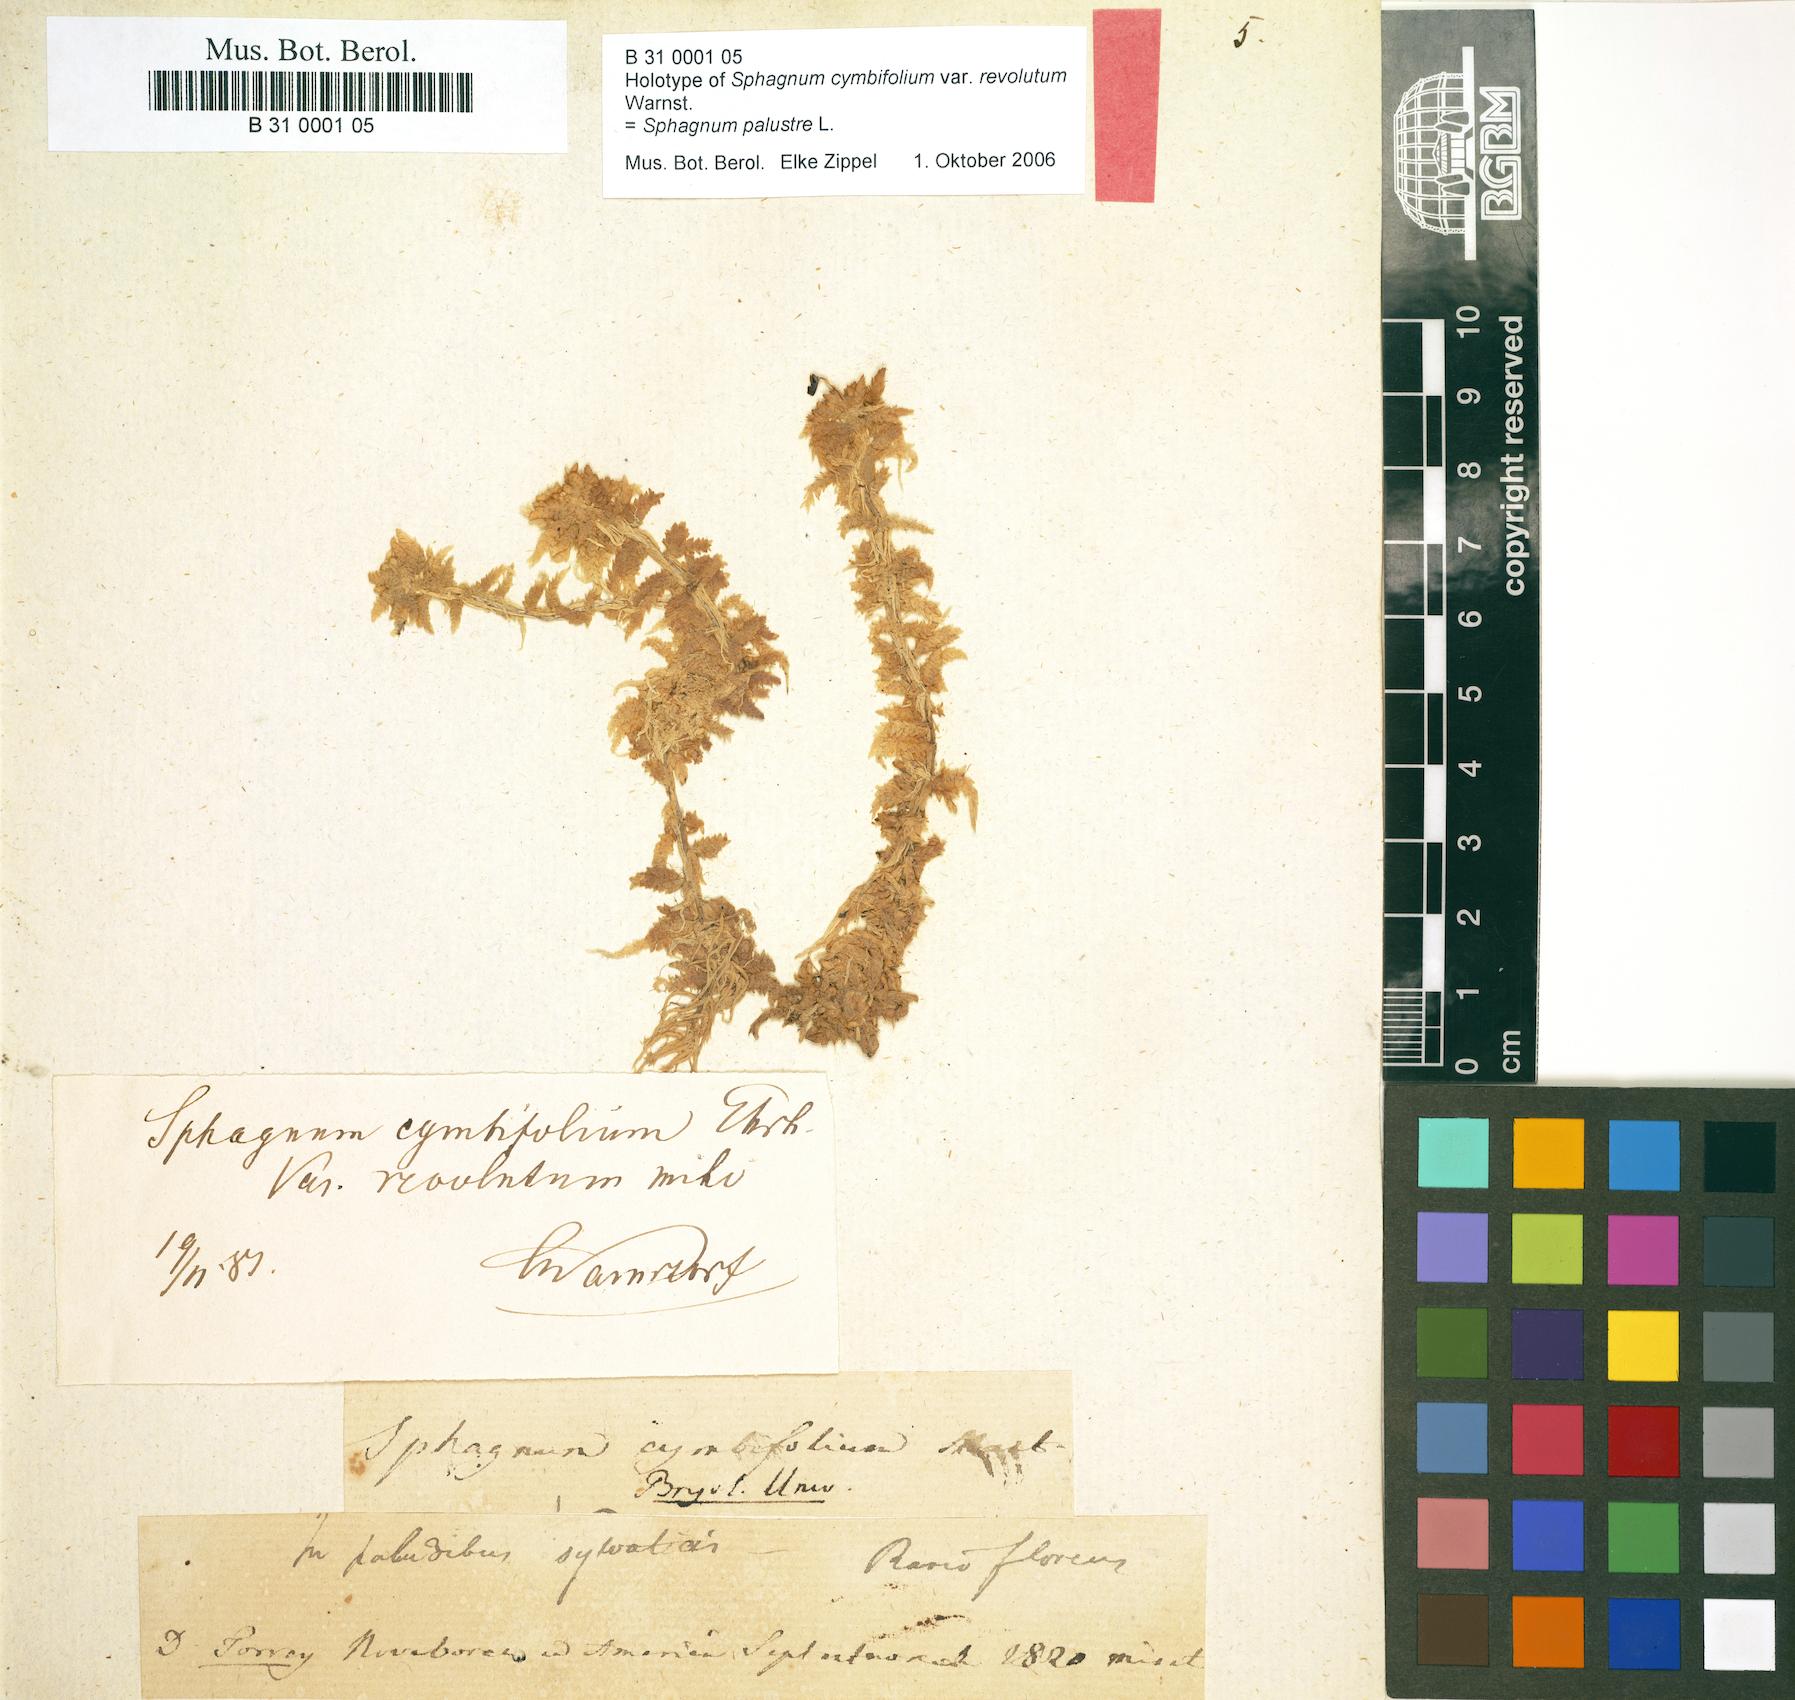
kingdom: Plantae
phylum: Bryophyta
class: Sphagnopsida
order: Sphagnales
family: Sphagnaceae
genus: Sphagnum
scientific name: Sphagnum palustre
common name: Blunt-leaved bog-moss
